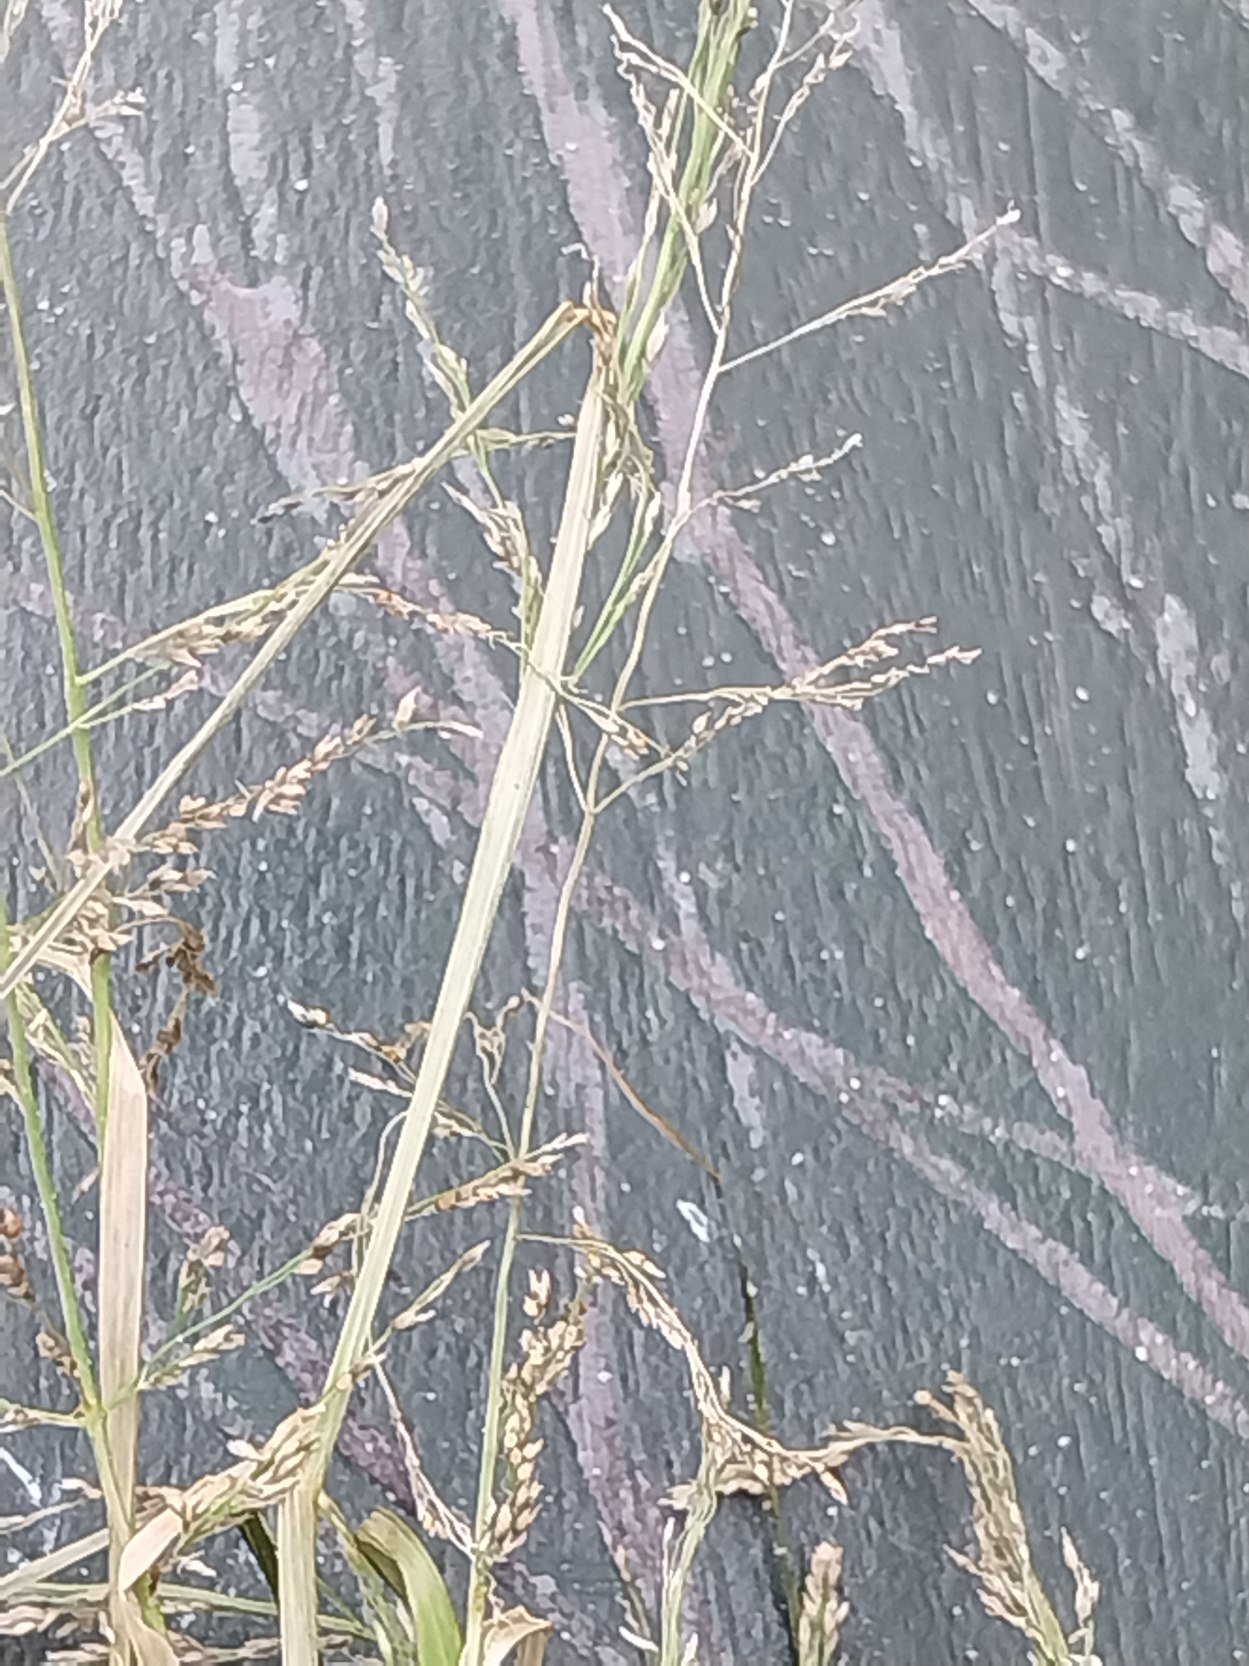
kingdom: Plantae
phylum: Tracheophyta
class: Liliopsida
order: Poales
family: Poaceae
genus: Eragrostis
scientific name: Eragrostis multicaulis
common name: Mangelstænglet kærlighedsgræs
